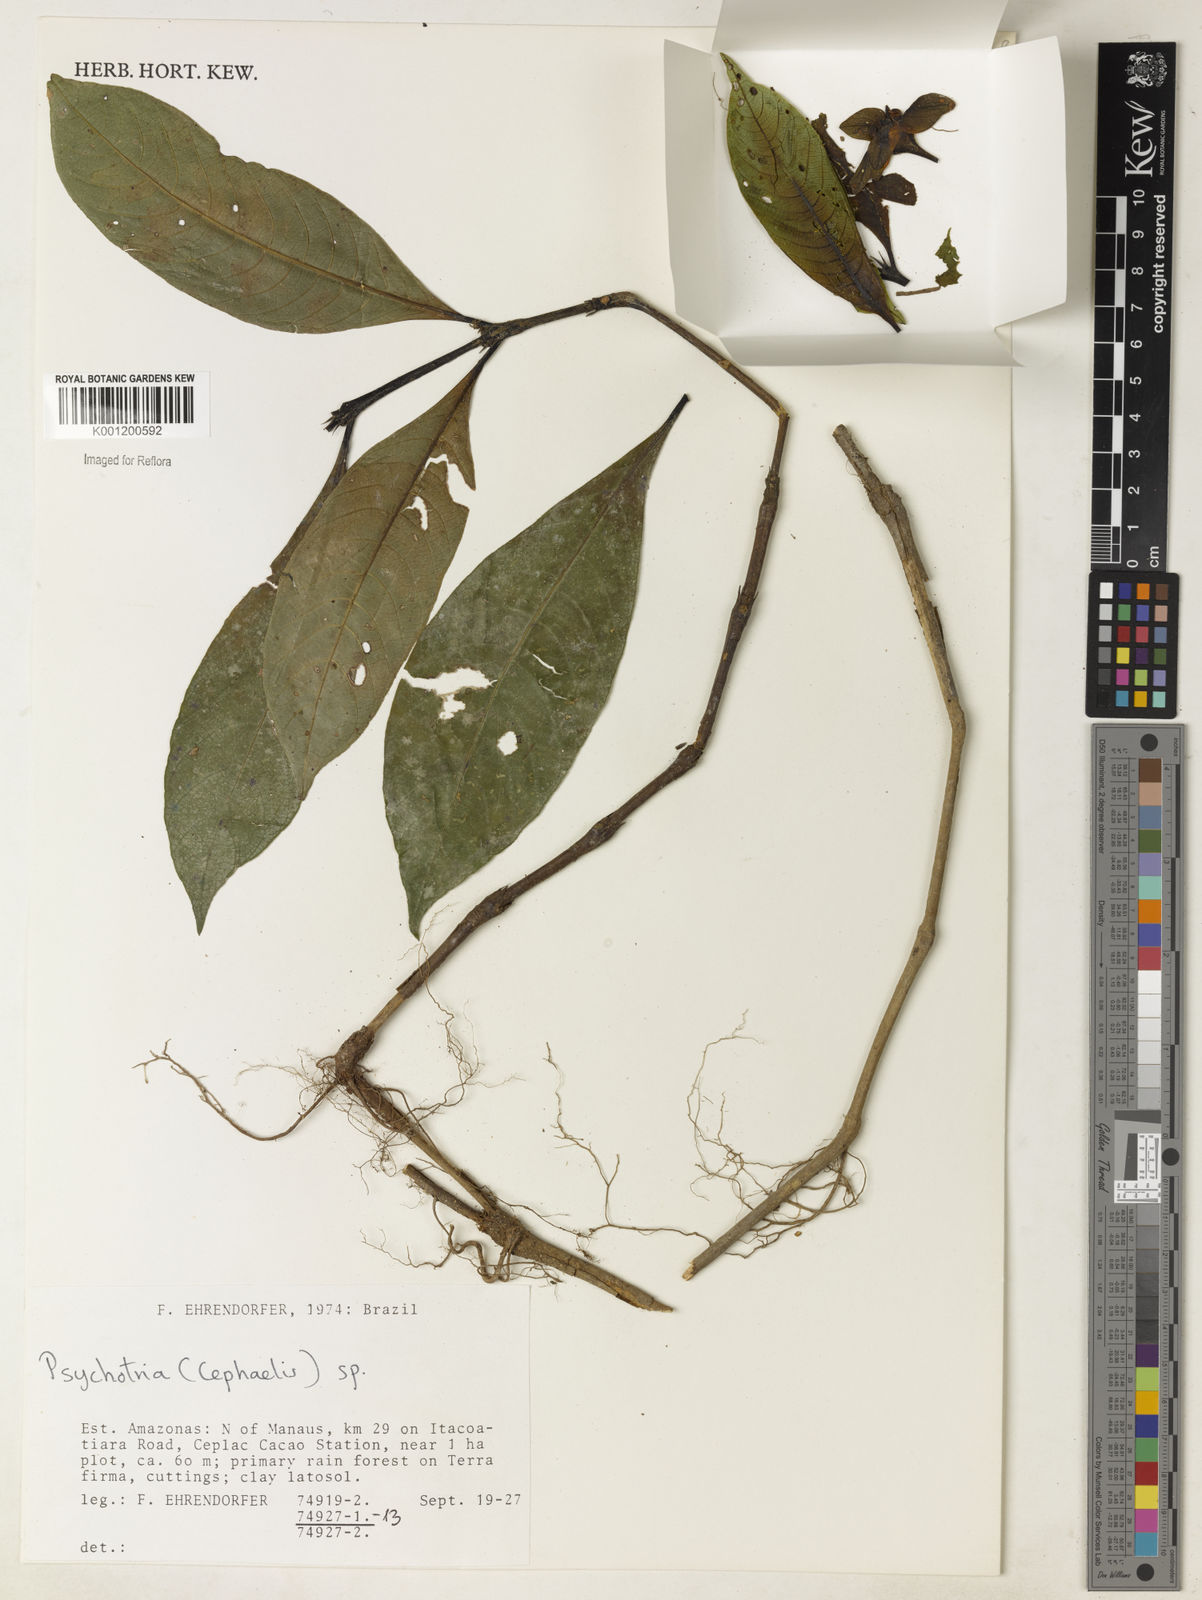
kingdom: Plantae
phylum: Tracheophyta
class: Magnoliopsida
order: Gentianales
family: Rubiaceae
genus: Psychotria
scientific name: Psychotria
